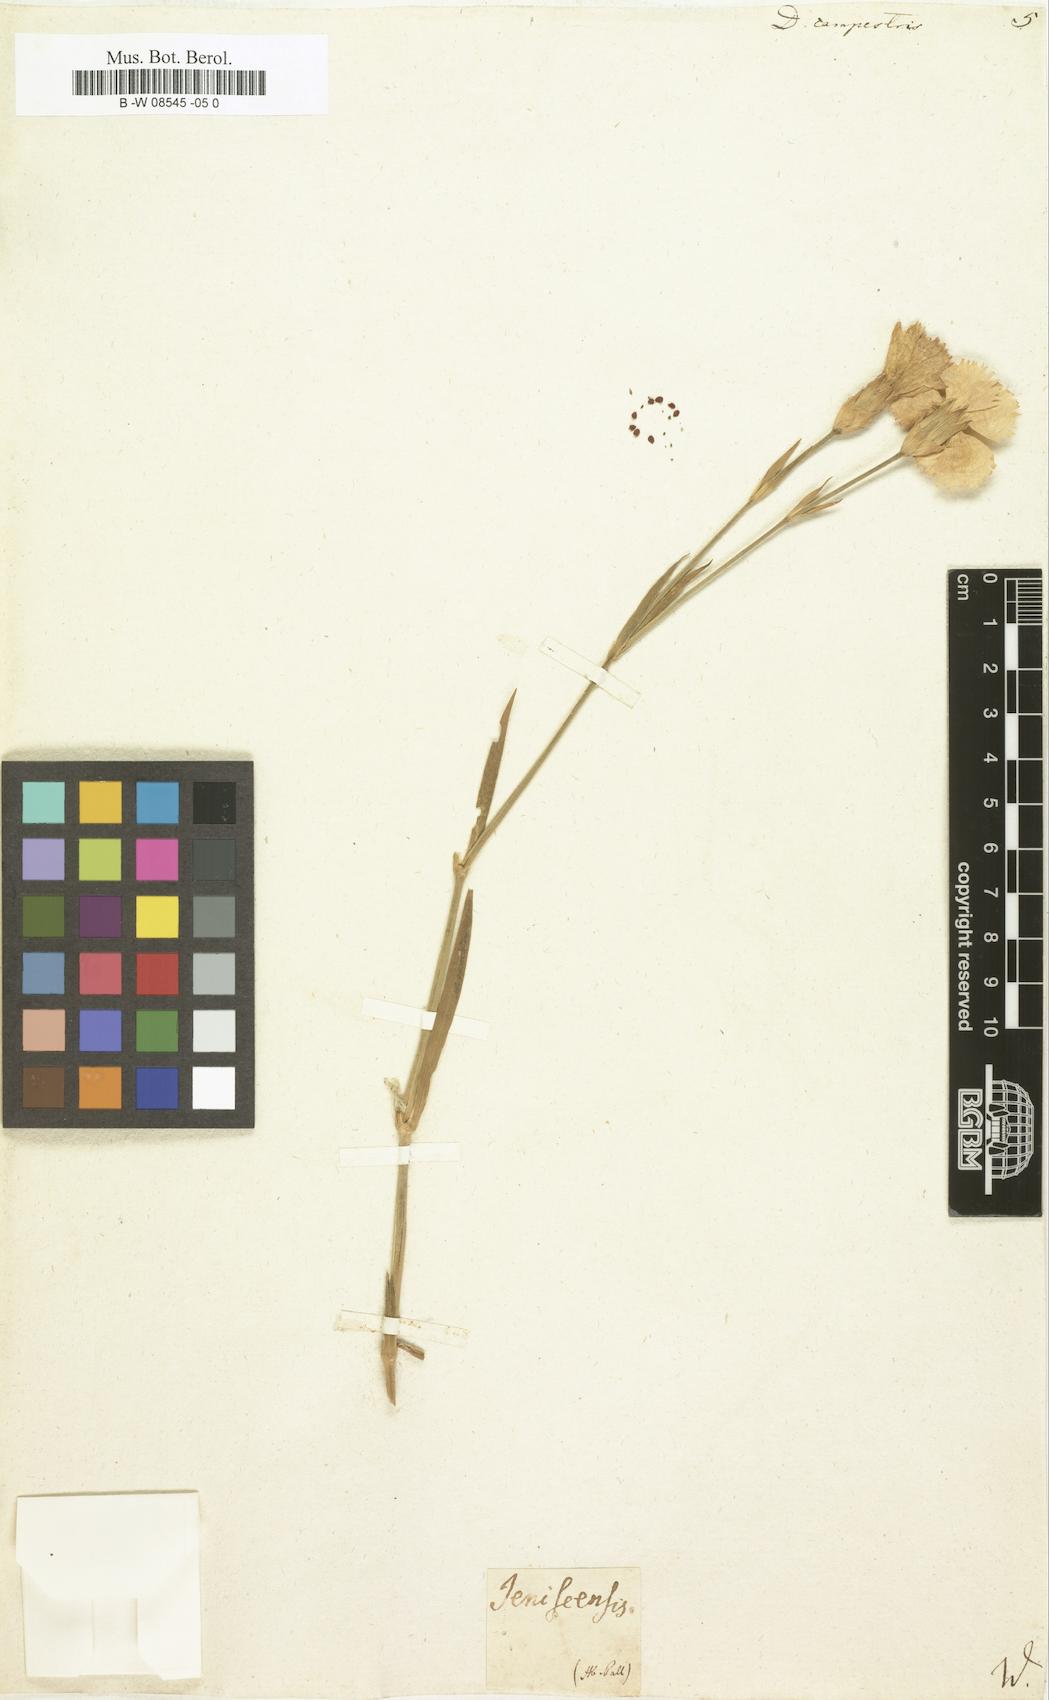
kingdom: Plantae
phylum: Tracheophyta
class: Magnoliopsida
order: Caryophyllales
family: Caryophyllaceae
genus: Dianthus
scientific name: Dianthus campestris
